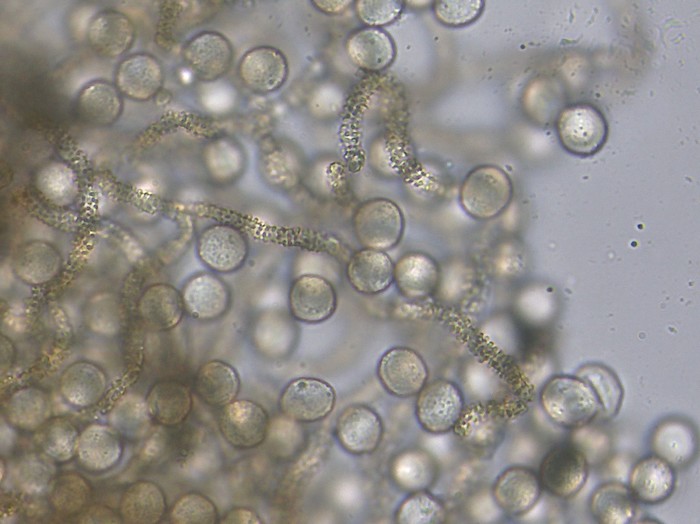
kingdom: Protozoa
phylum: Mycetozoa
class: Myxomycetes
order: Trichiales
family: Arcyriaceae
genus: Arcyria
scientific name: Arcyria cinerea
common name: White carnival candy slime mold
